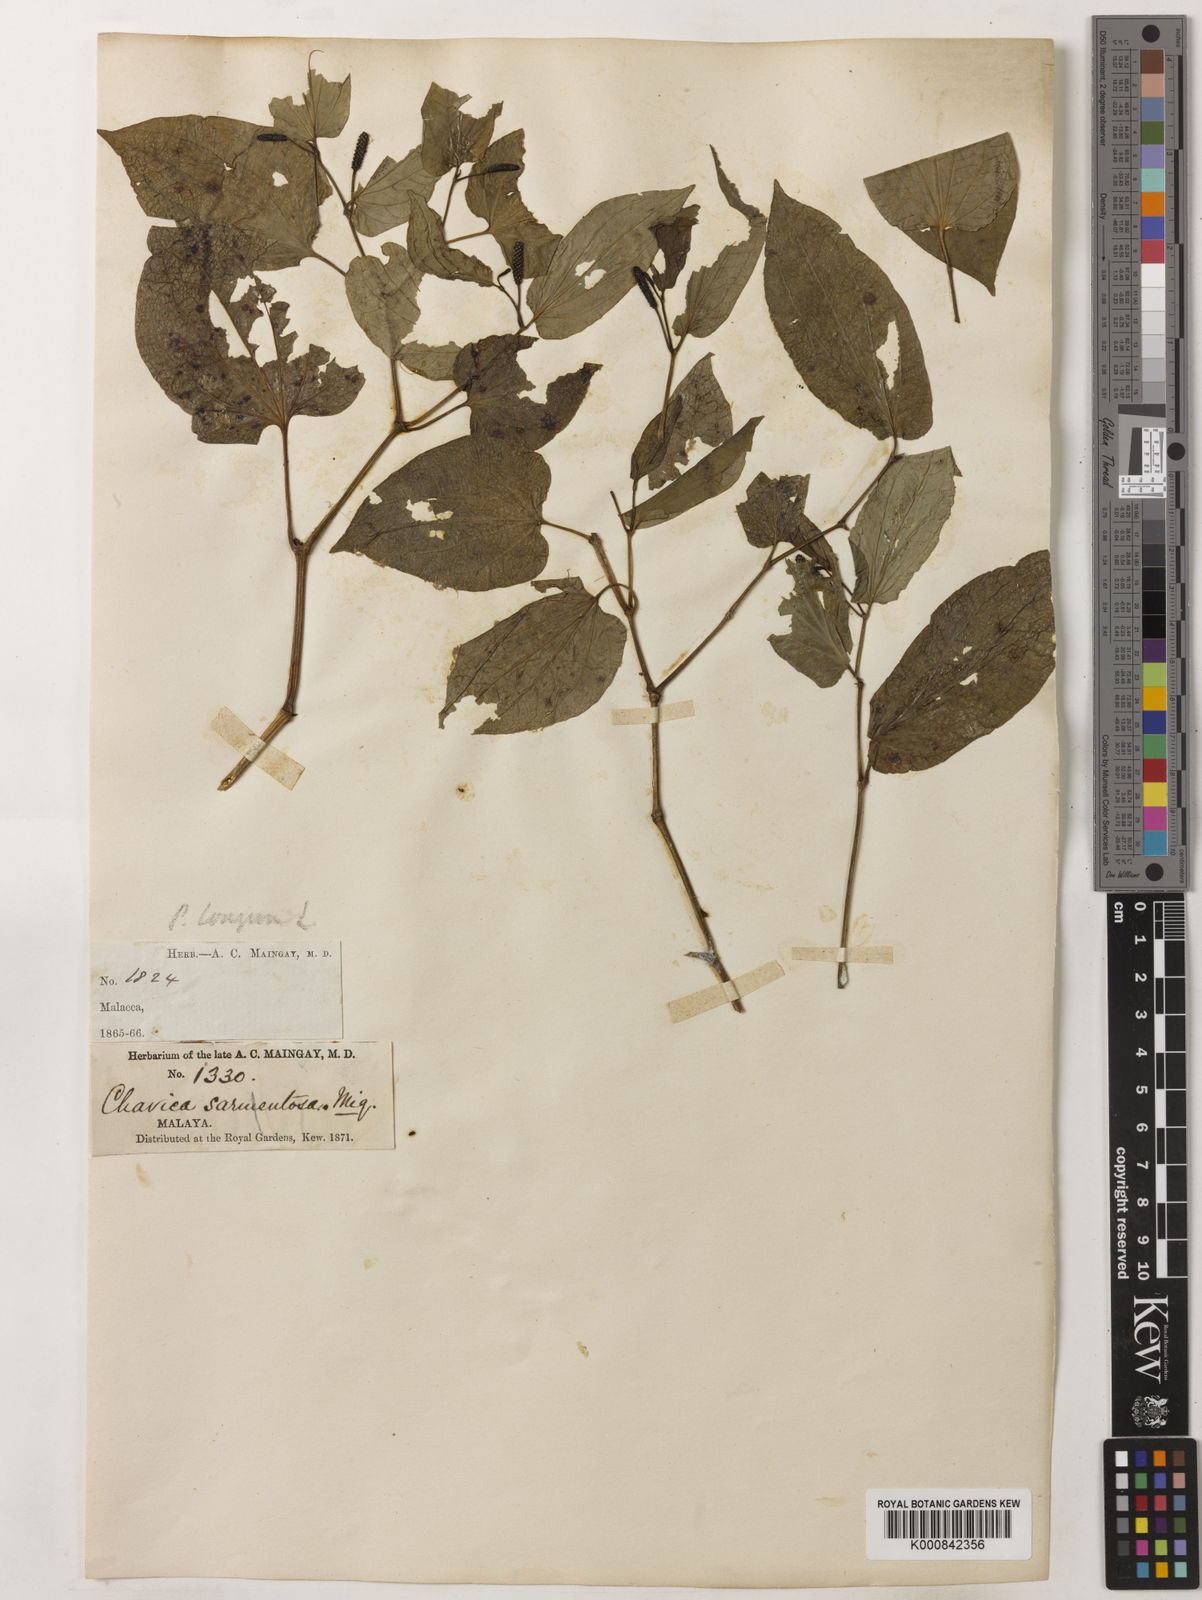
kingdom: Plantae
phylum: Tracheophyta
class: Magnoliopsida
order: Piperales
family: Piperaceae
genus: Piper
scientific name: Piper sarmentosum
